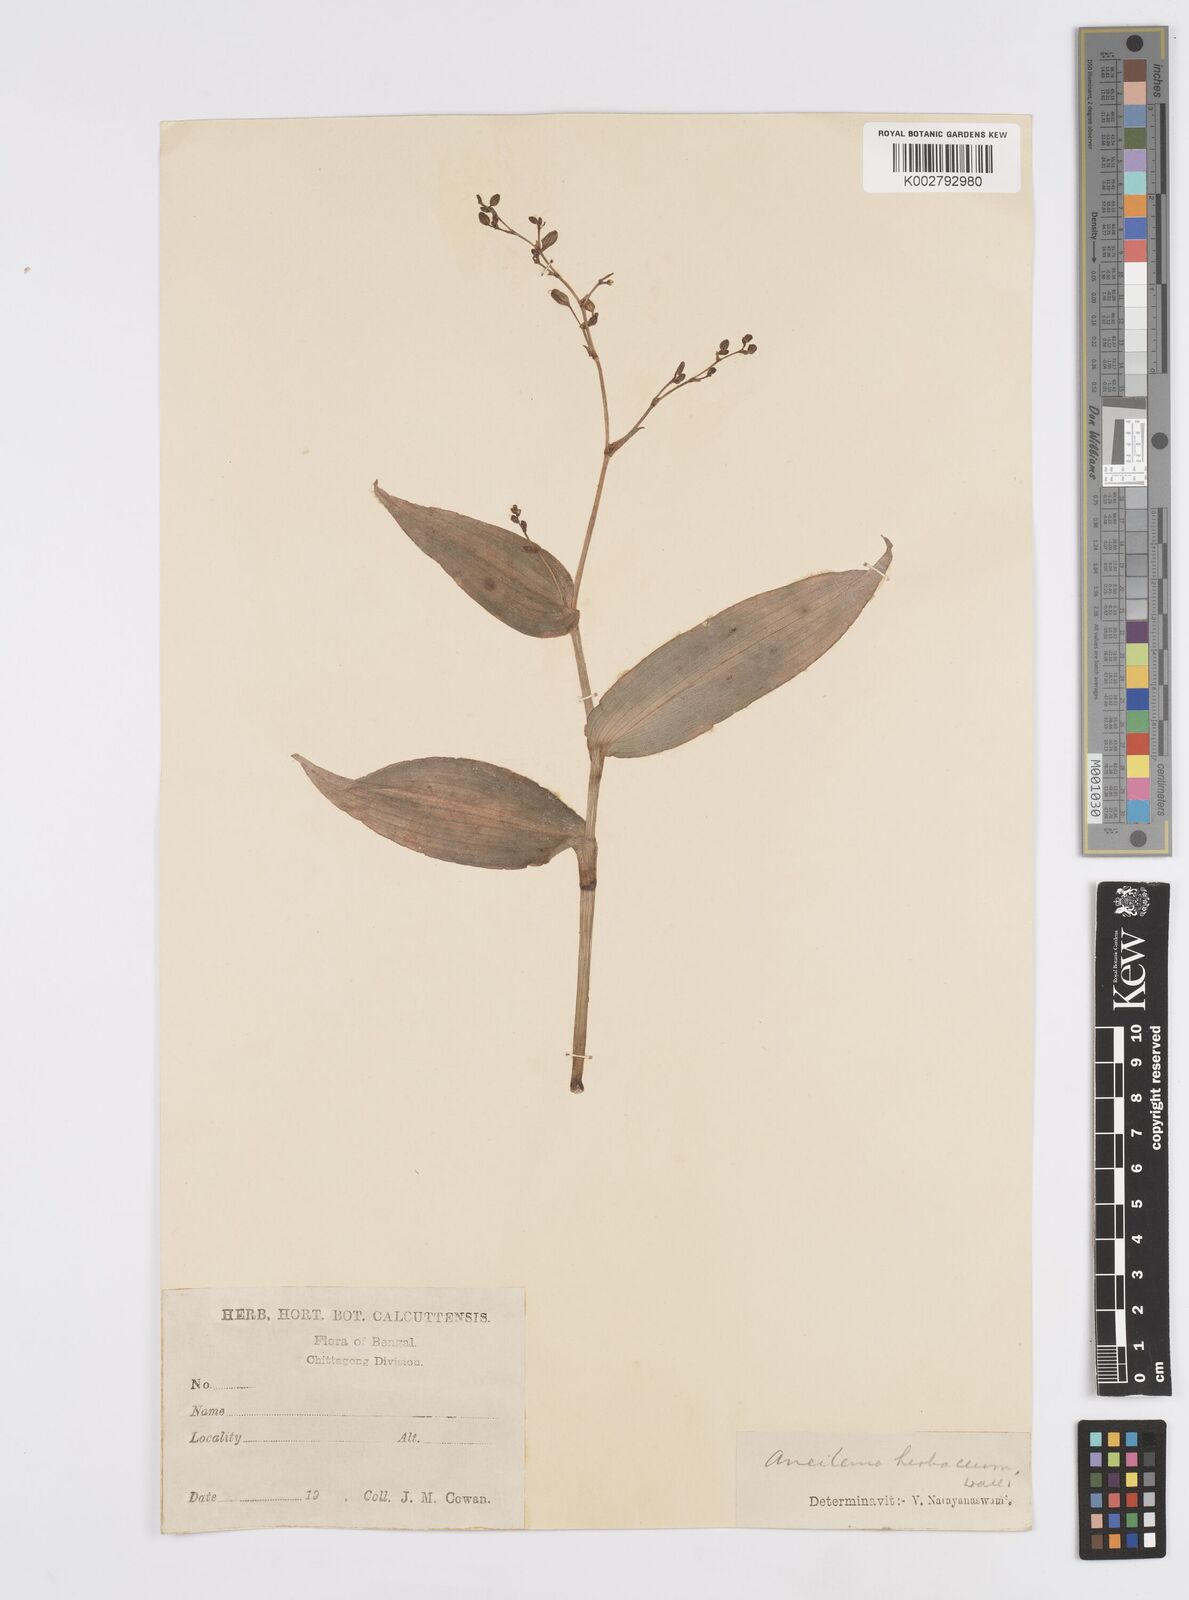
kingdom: Plantae
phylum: Tracheophyta
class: Liliopsida
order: Commelinales
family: Commelinaceae
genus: Murdannia
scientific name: Murdannia
